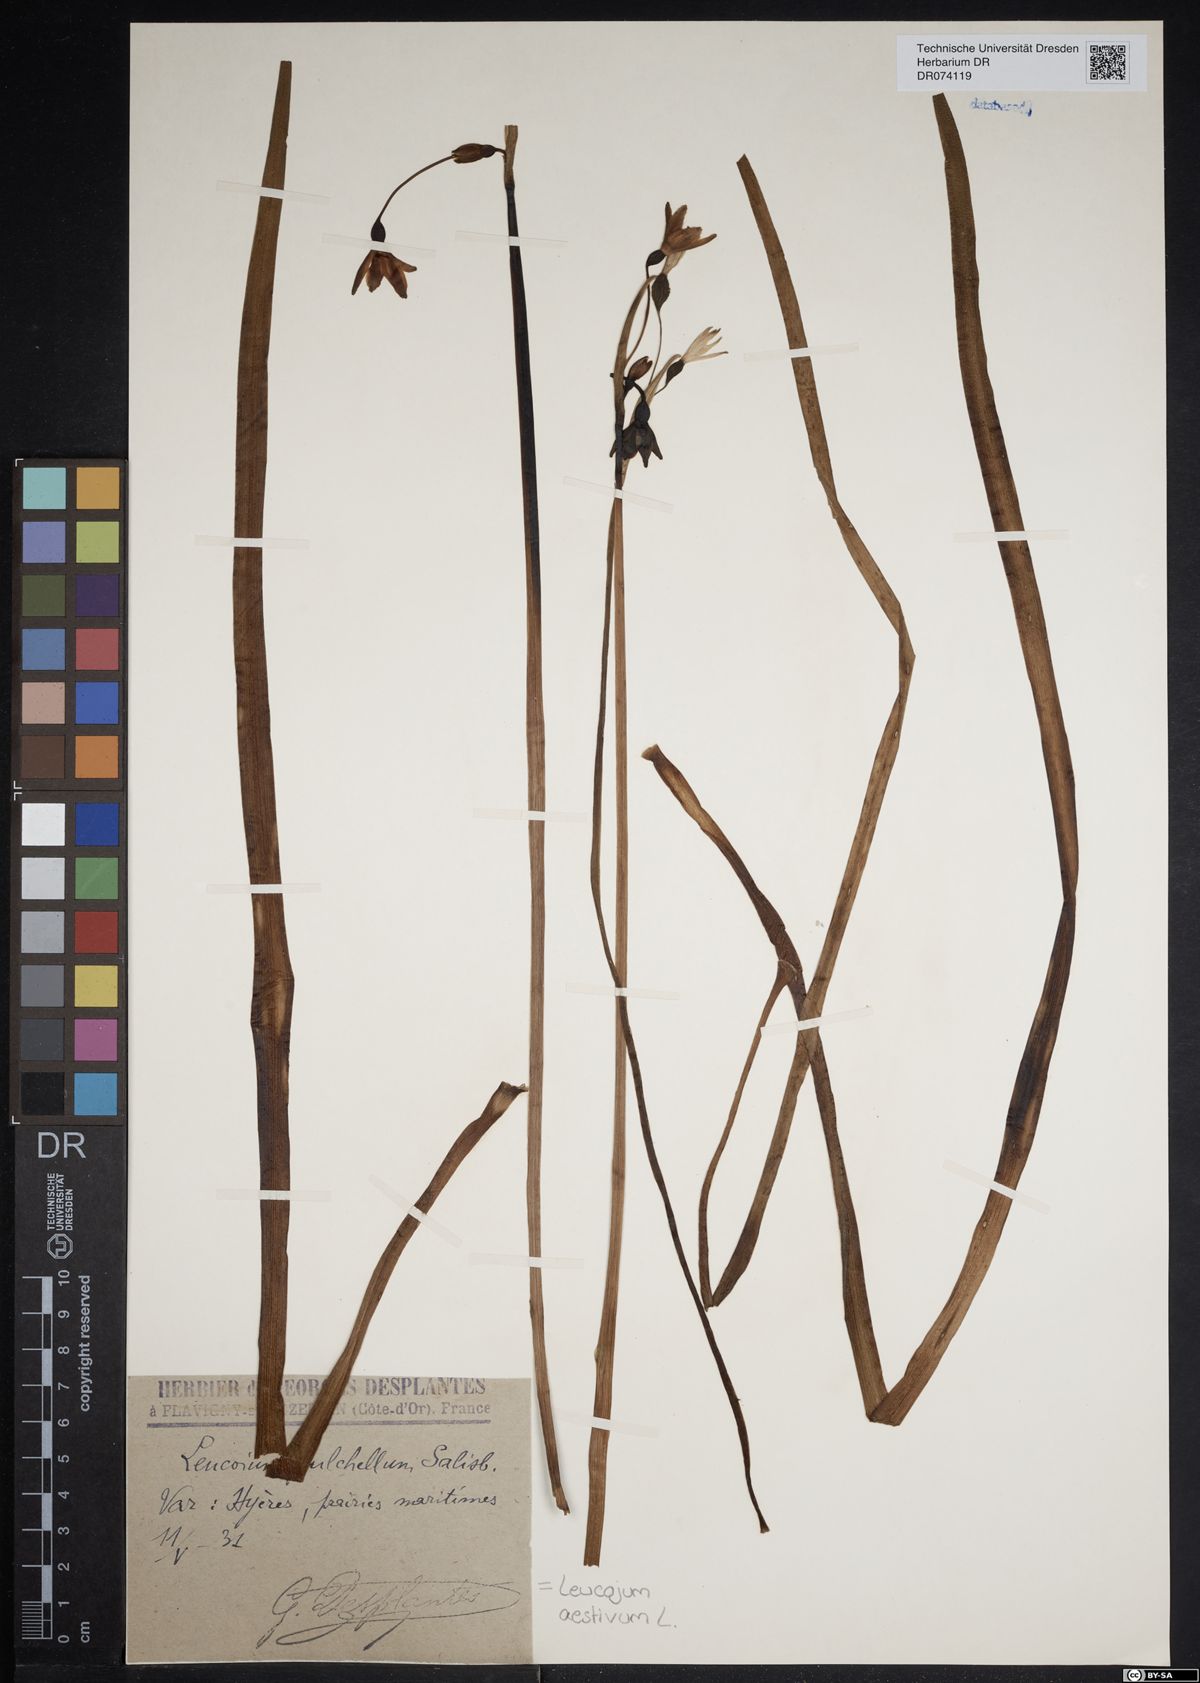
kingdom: Plantae
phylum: Tracheophyta
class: Liliopsida
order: Asparagales
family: Amaryllidaceae
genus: Leucojum
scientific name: Leucojum aestivum
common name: Summer snowflake
